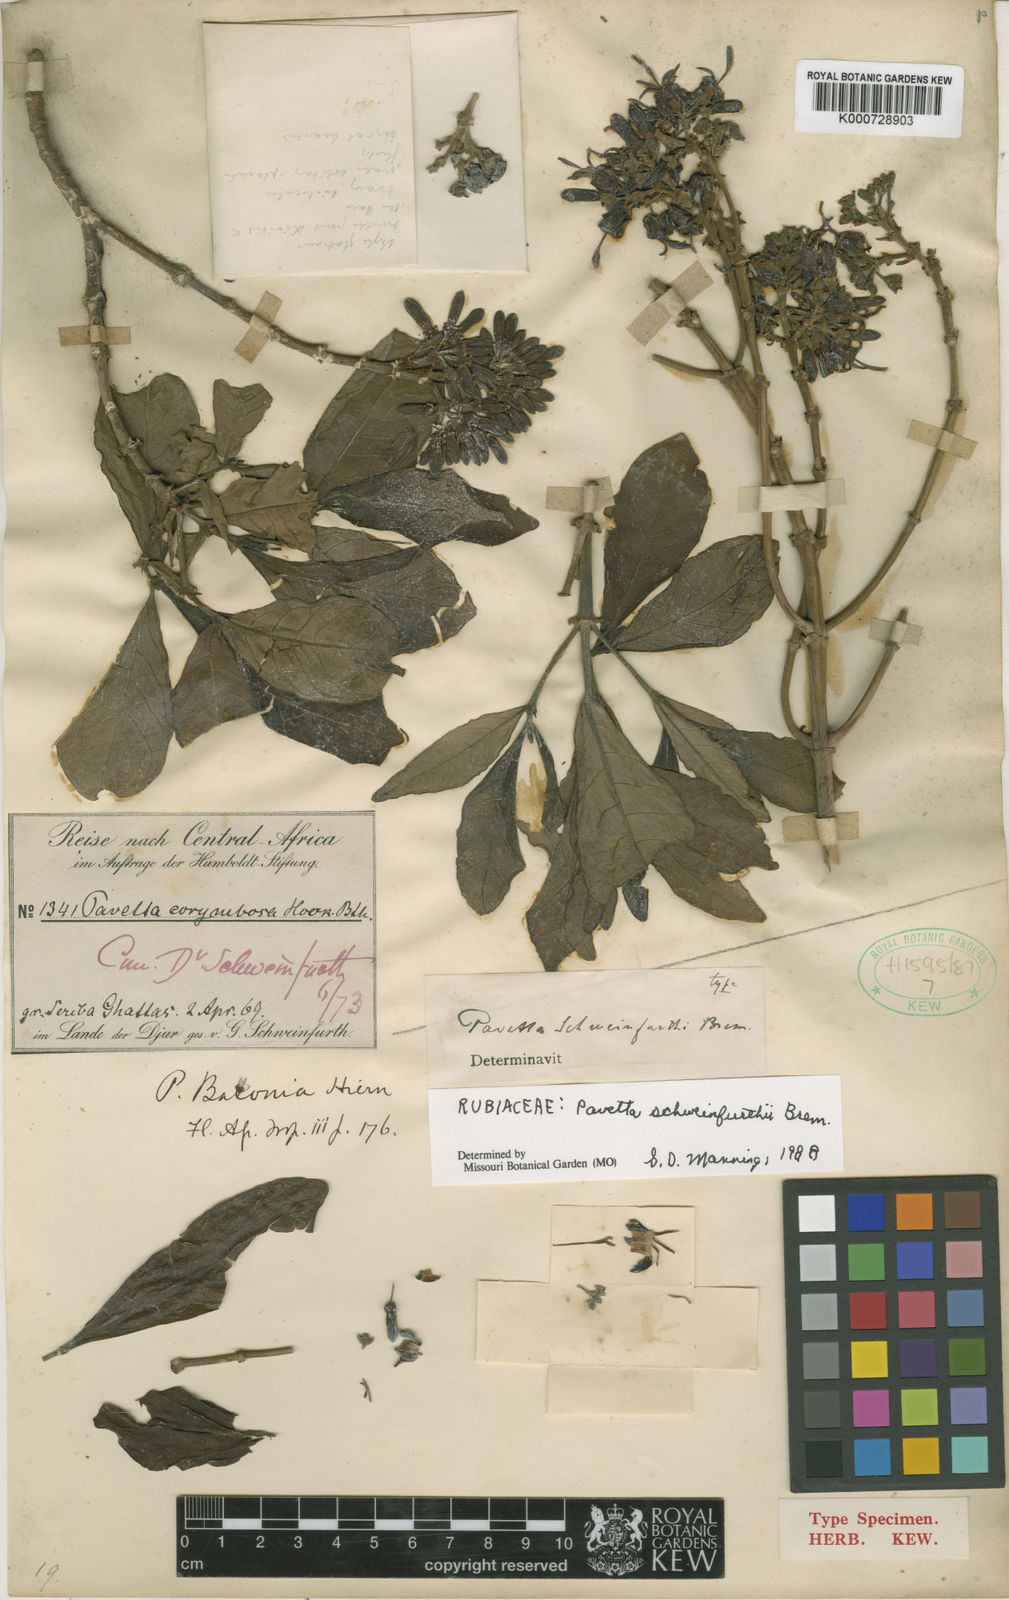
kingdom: Plantae
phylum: Tracheophyta
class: Magnoliopsida
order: Gentianales
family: Rubiaceae
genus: Pavetta
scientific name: Pavetta schweinfurthii
